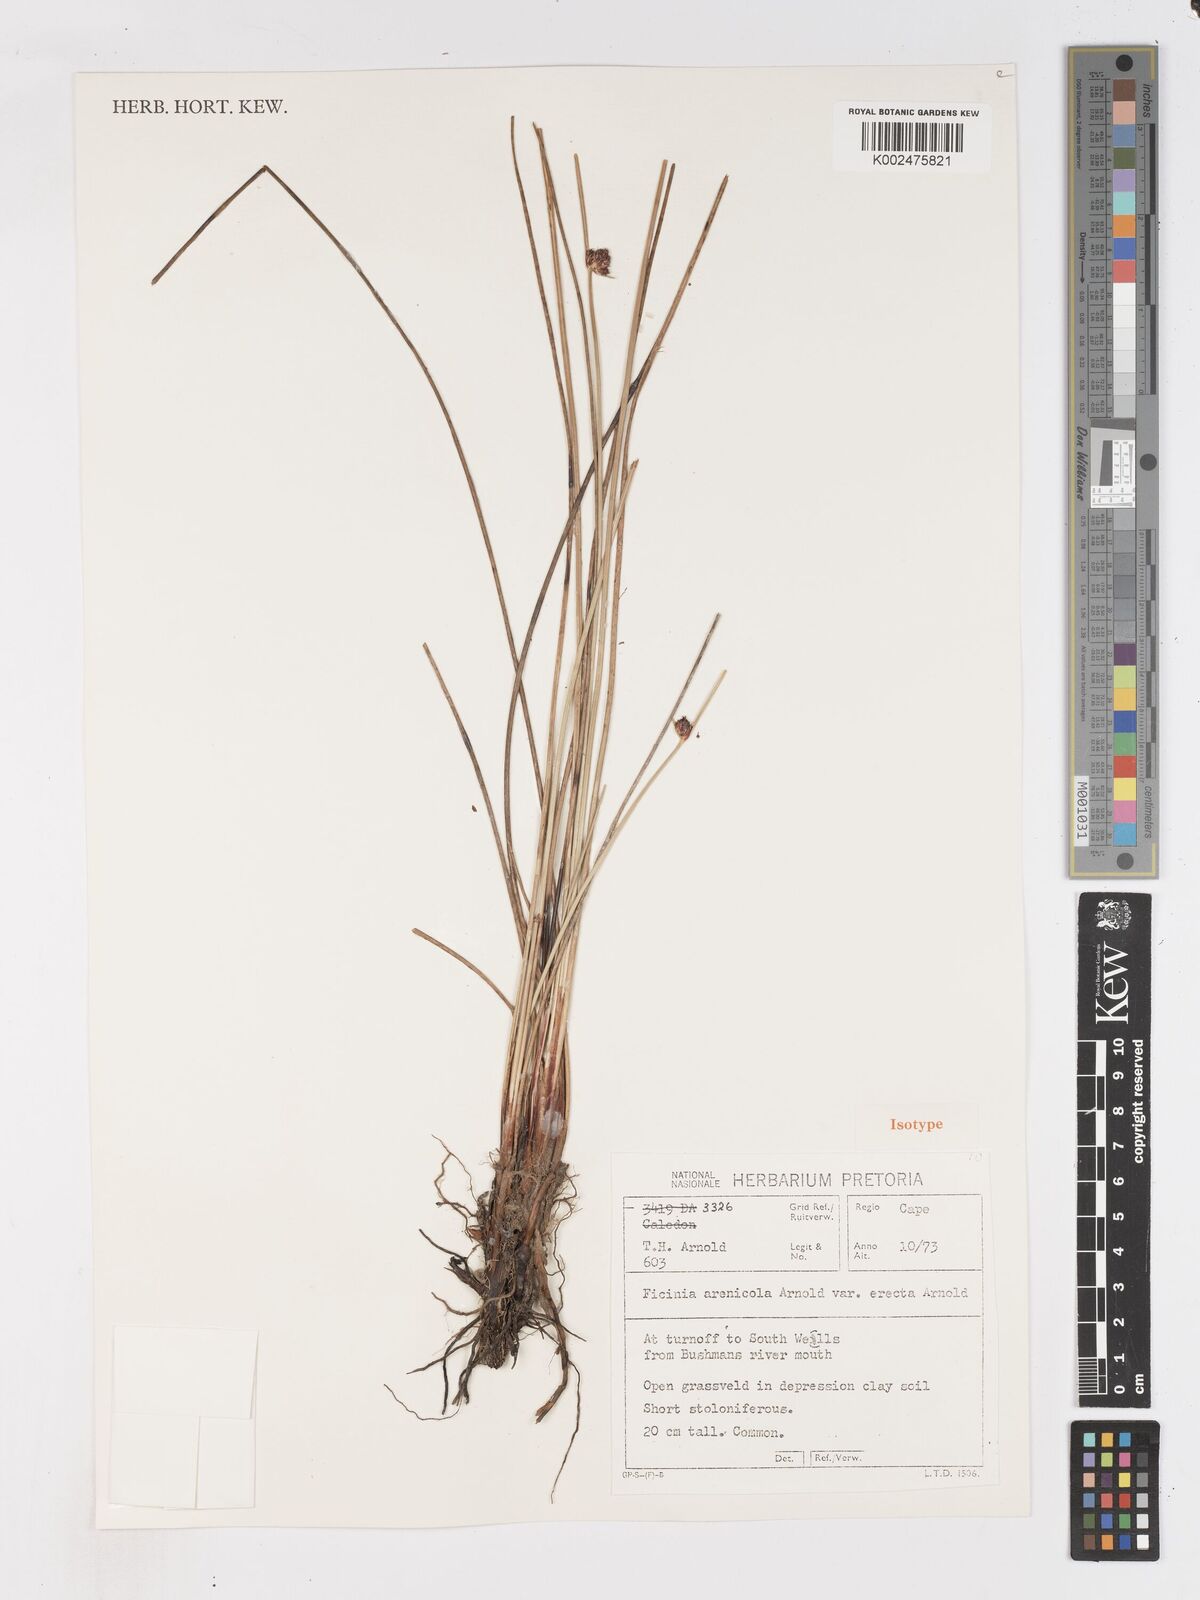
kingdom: Plantae
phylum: Tracheophyta
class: Liliopsida
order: Poales
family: Cyperaceae
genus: Ficinia
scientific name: Ficinia arenicola
